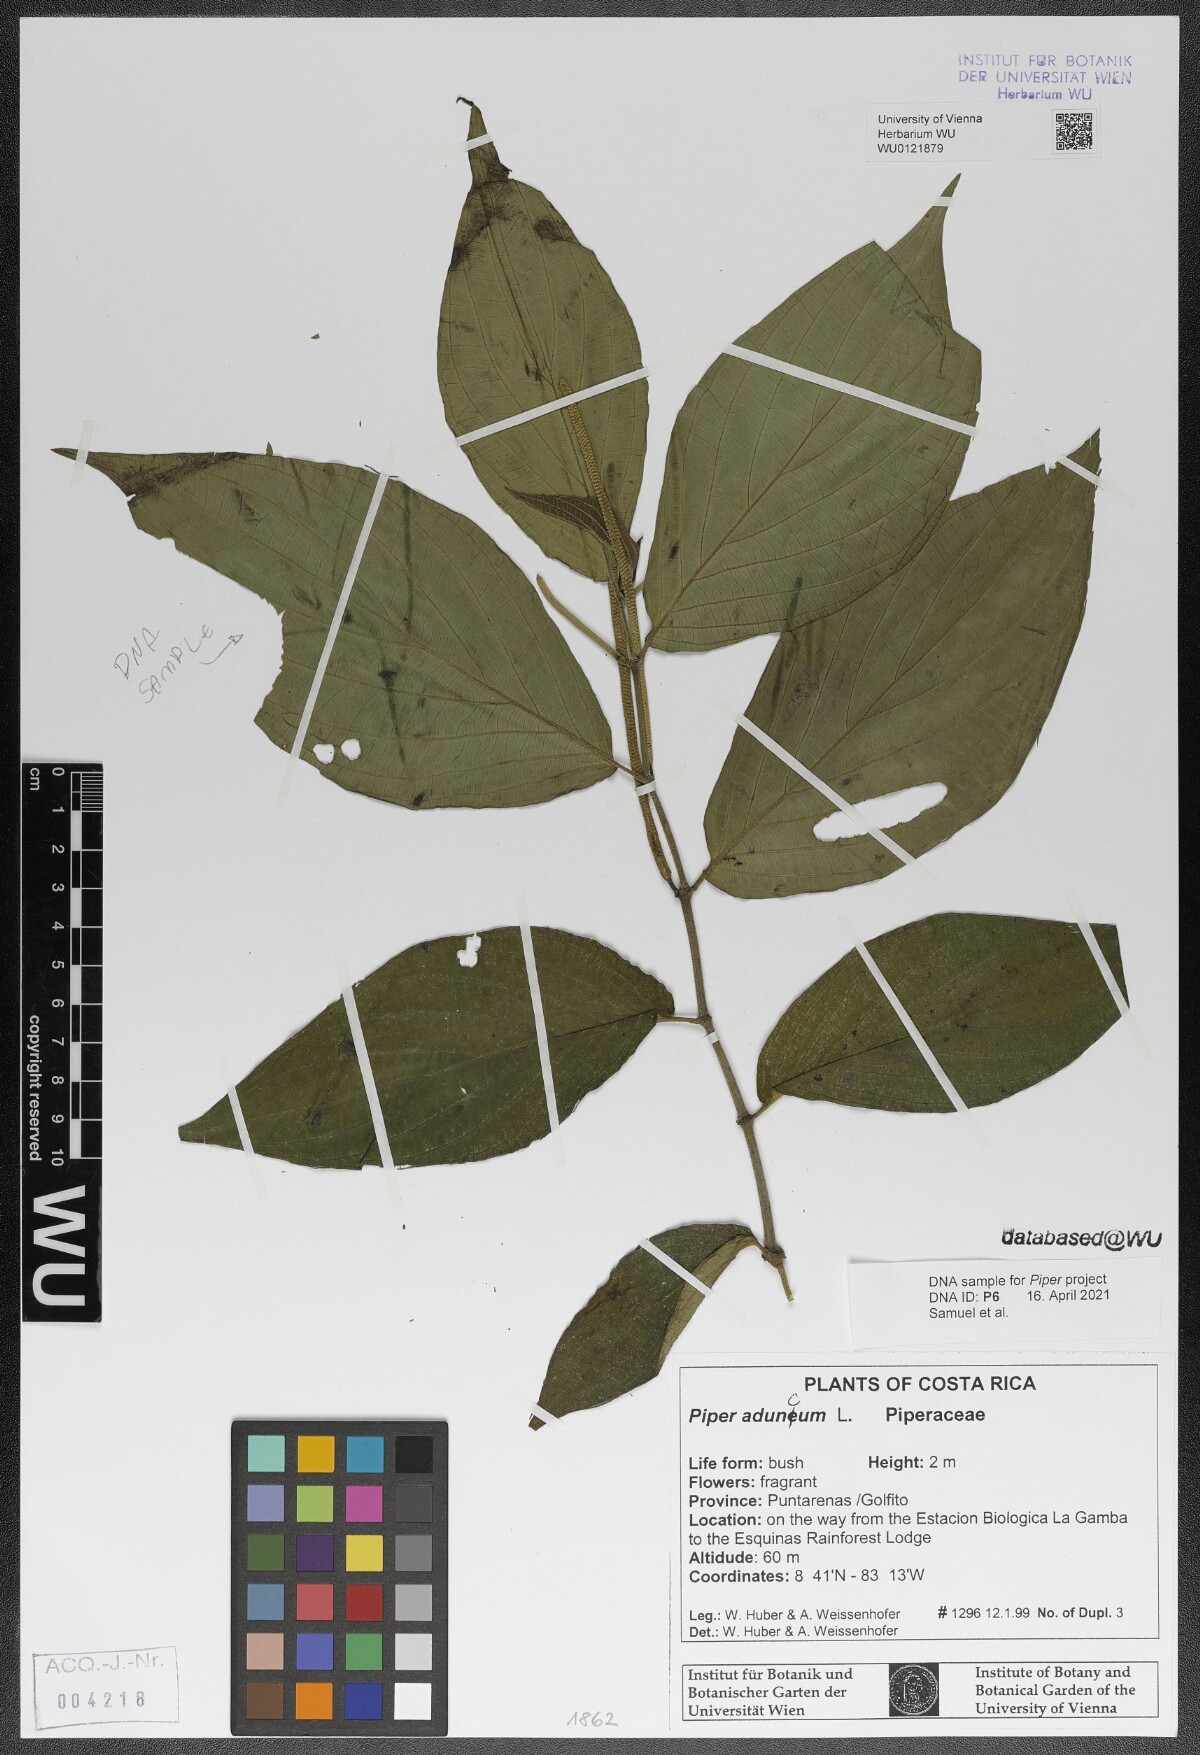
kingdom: Plantae
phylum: Tracheophyta
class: Magnoliopsida
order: Piperales
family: Piperaceae
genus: Piper
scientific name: Piper aduncum
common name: Spiked pepper
